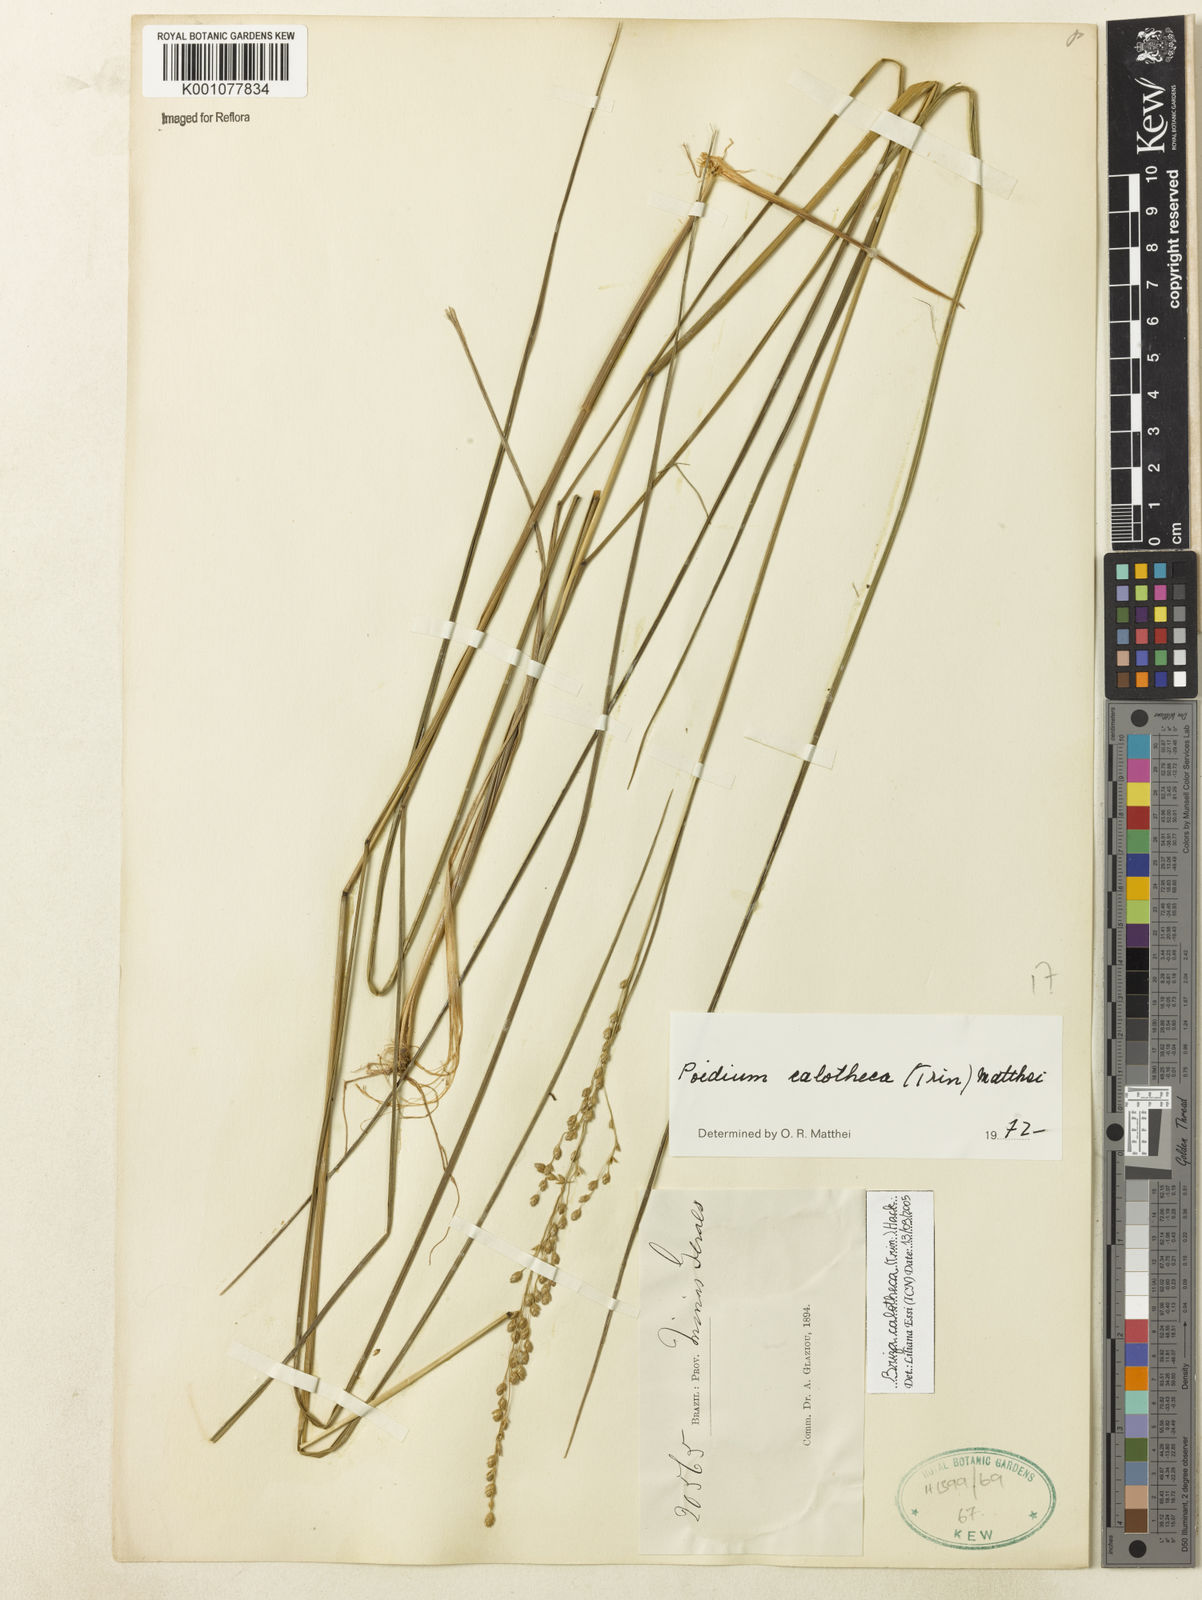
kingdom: Plantae
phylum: Tracheophyta
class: Liliopsida
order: Poales
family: Poaceae
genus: Poidium
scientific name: Poidium calotheca
